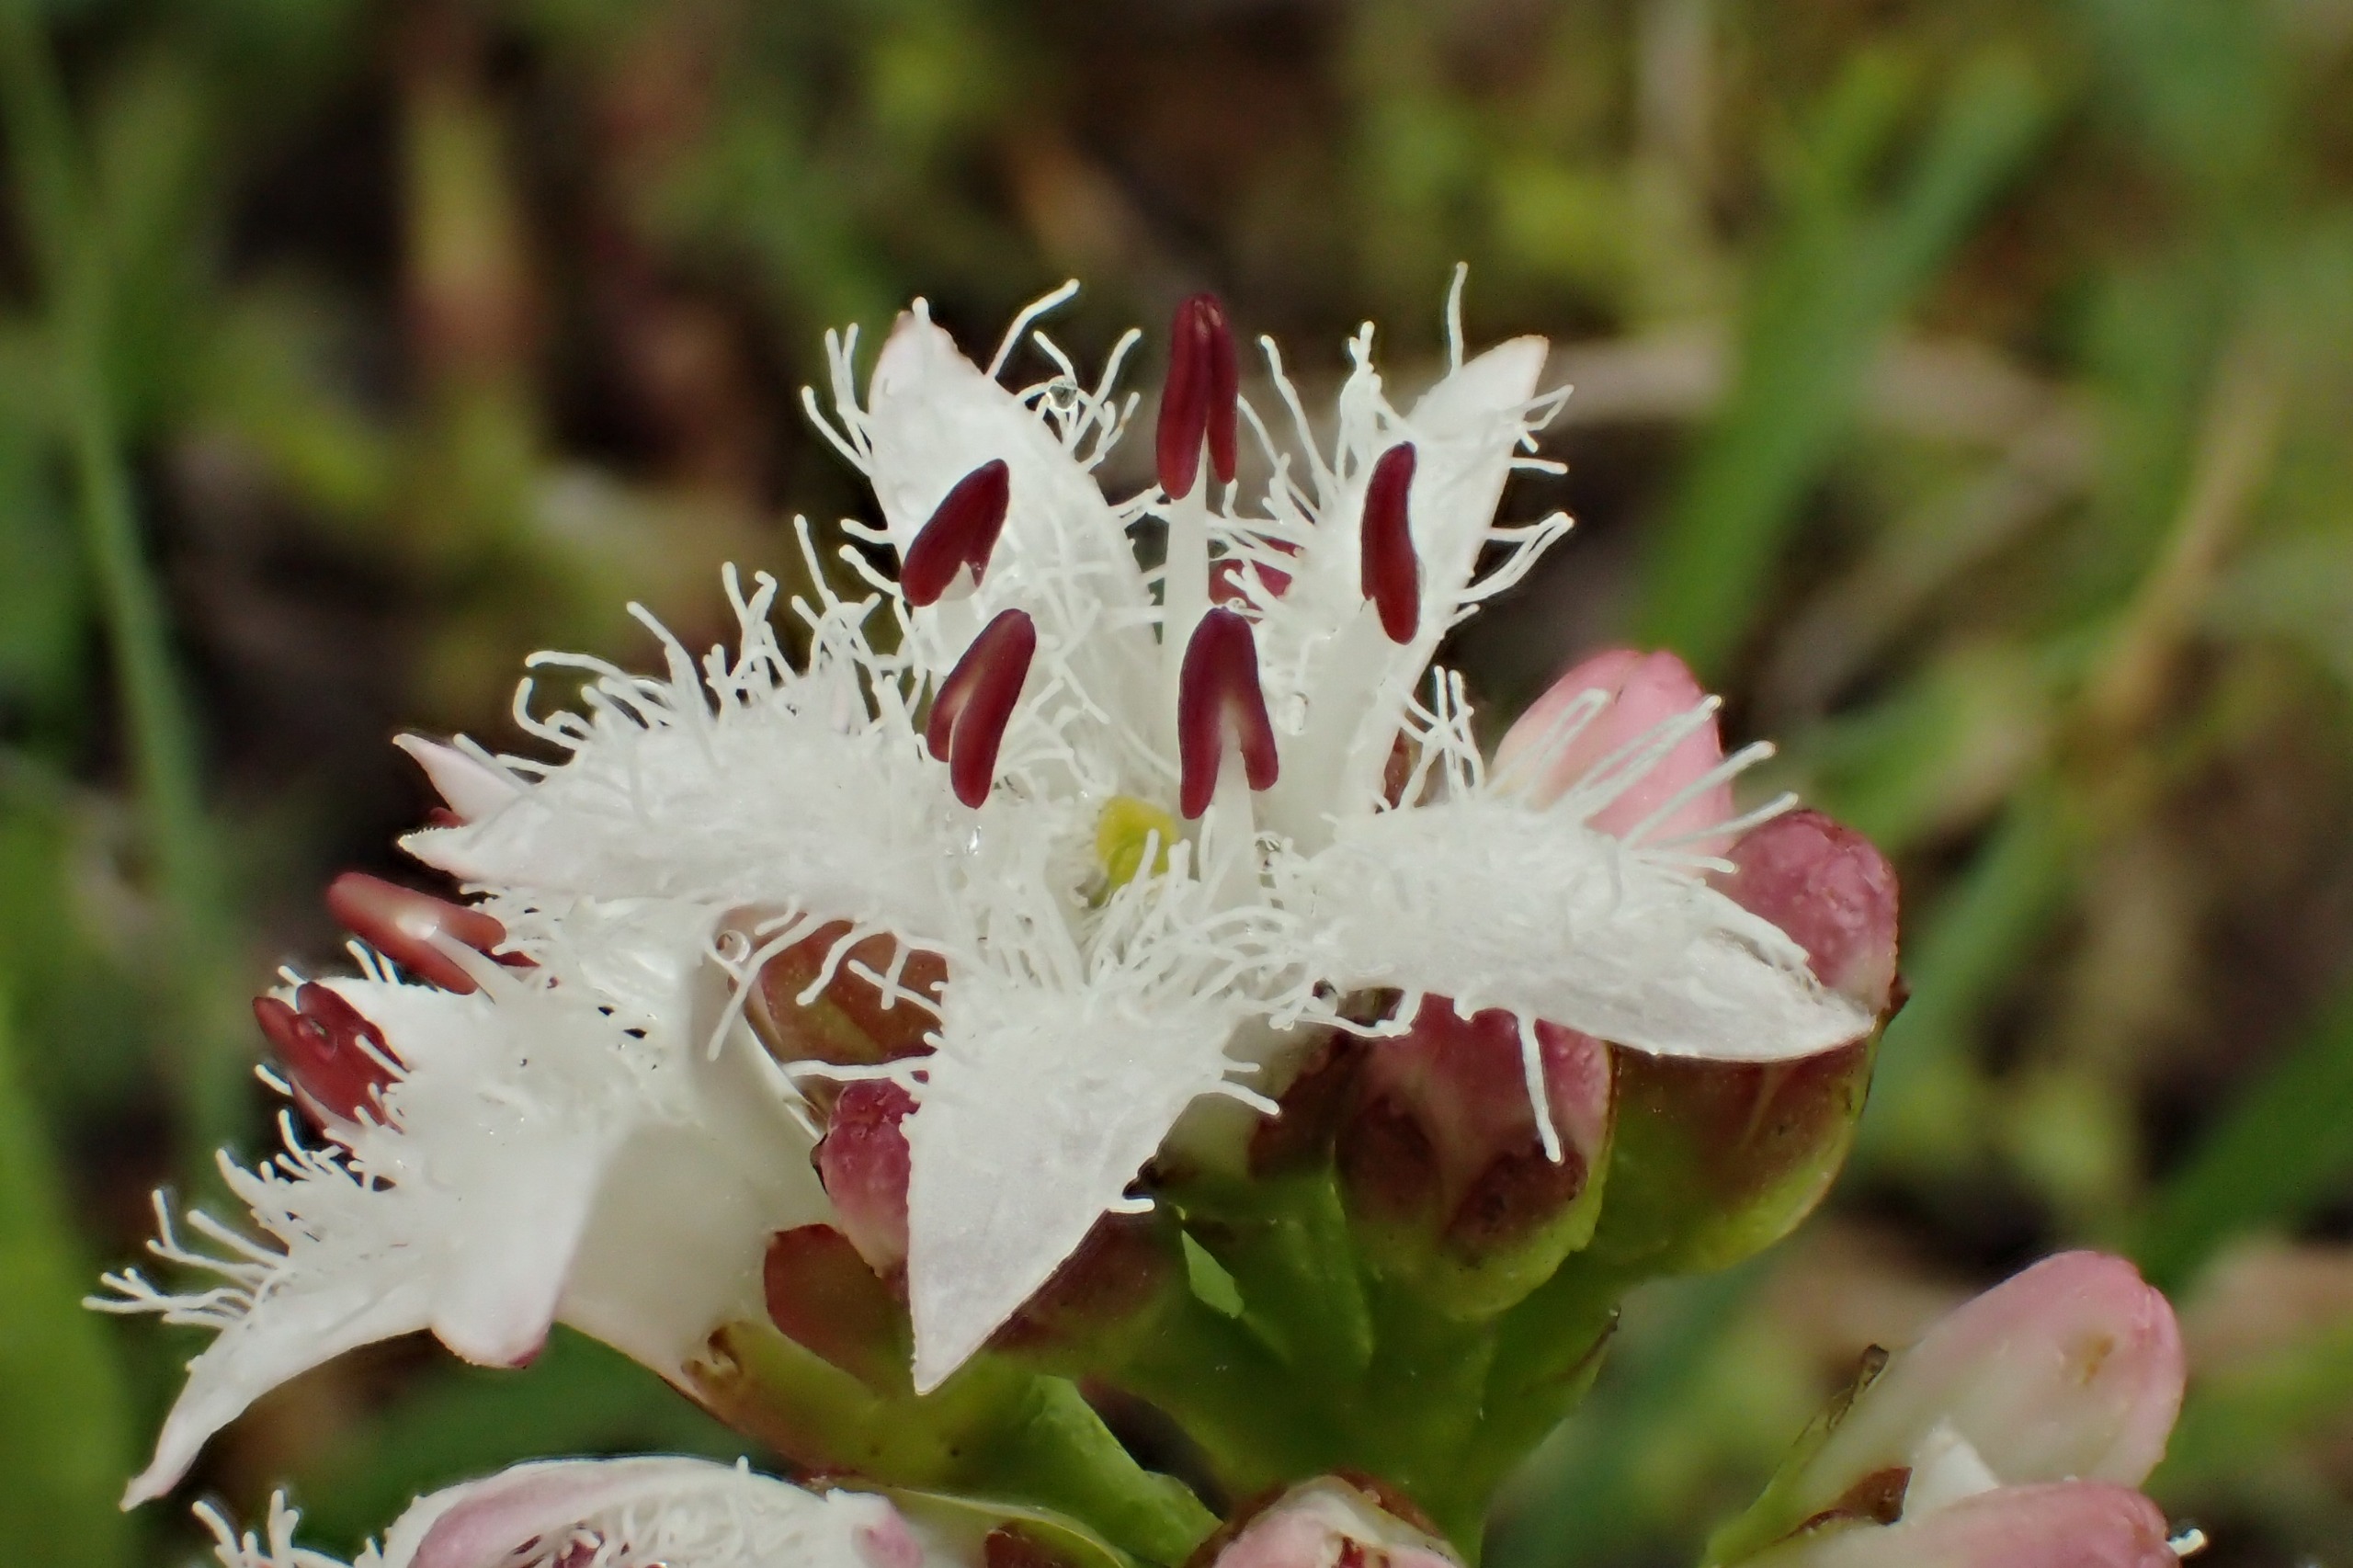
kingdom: Plantae
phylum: Tracheophyta
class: Magnoliopsida
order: Asterales
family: Menyanthaceae
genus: Menyanthes
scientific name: Menyanthes trifoliata
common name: Bukkeblad
